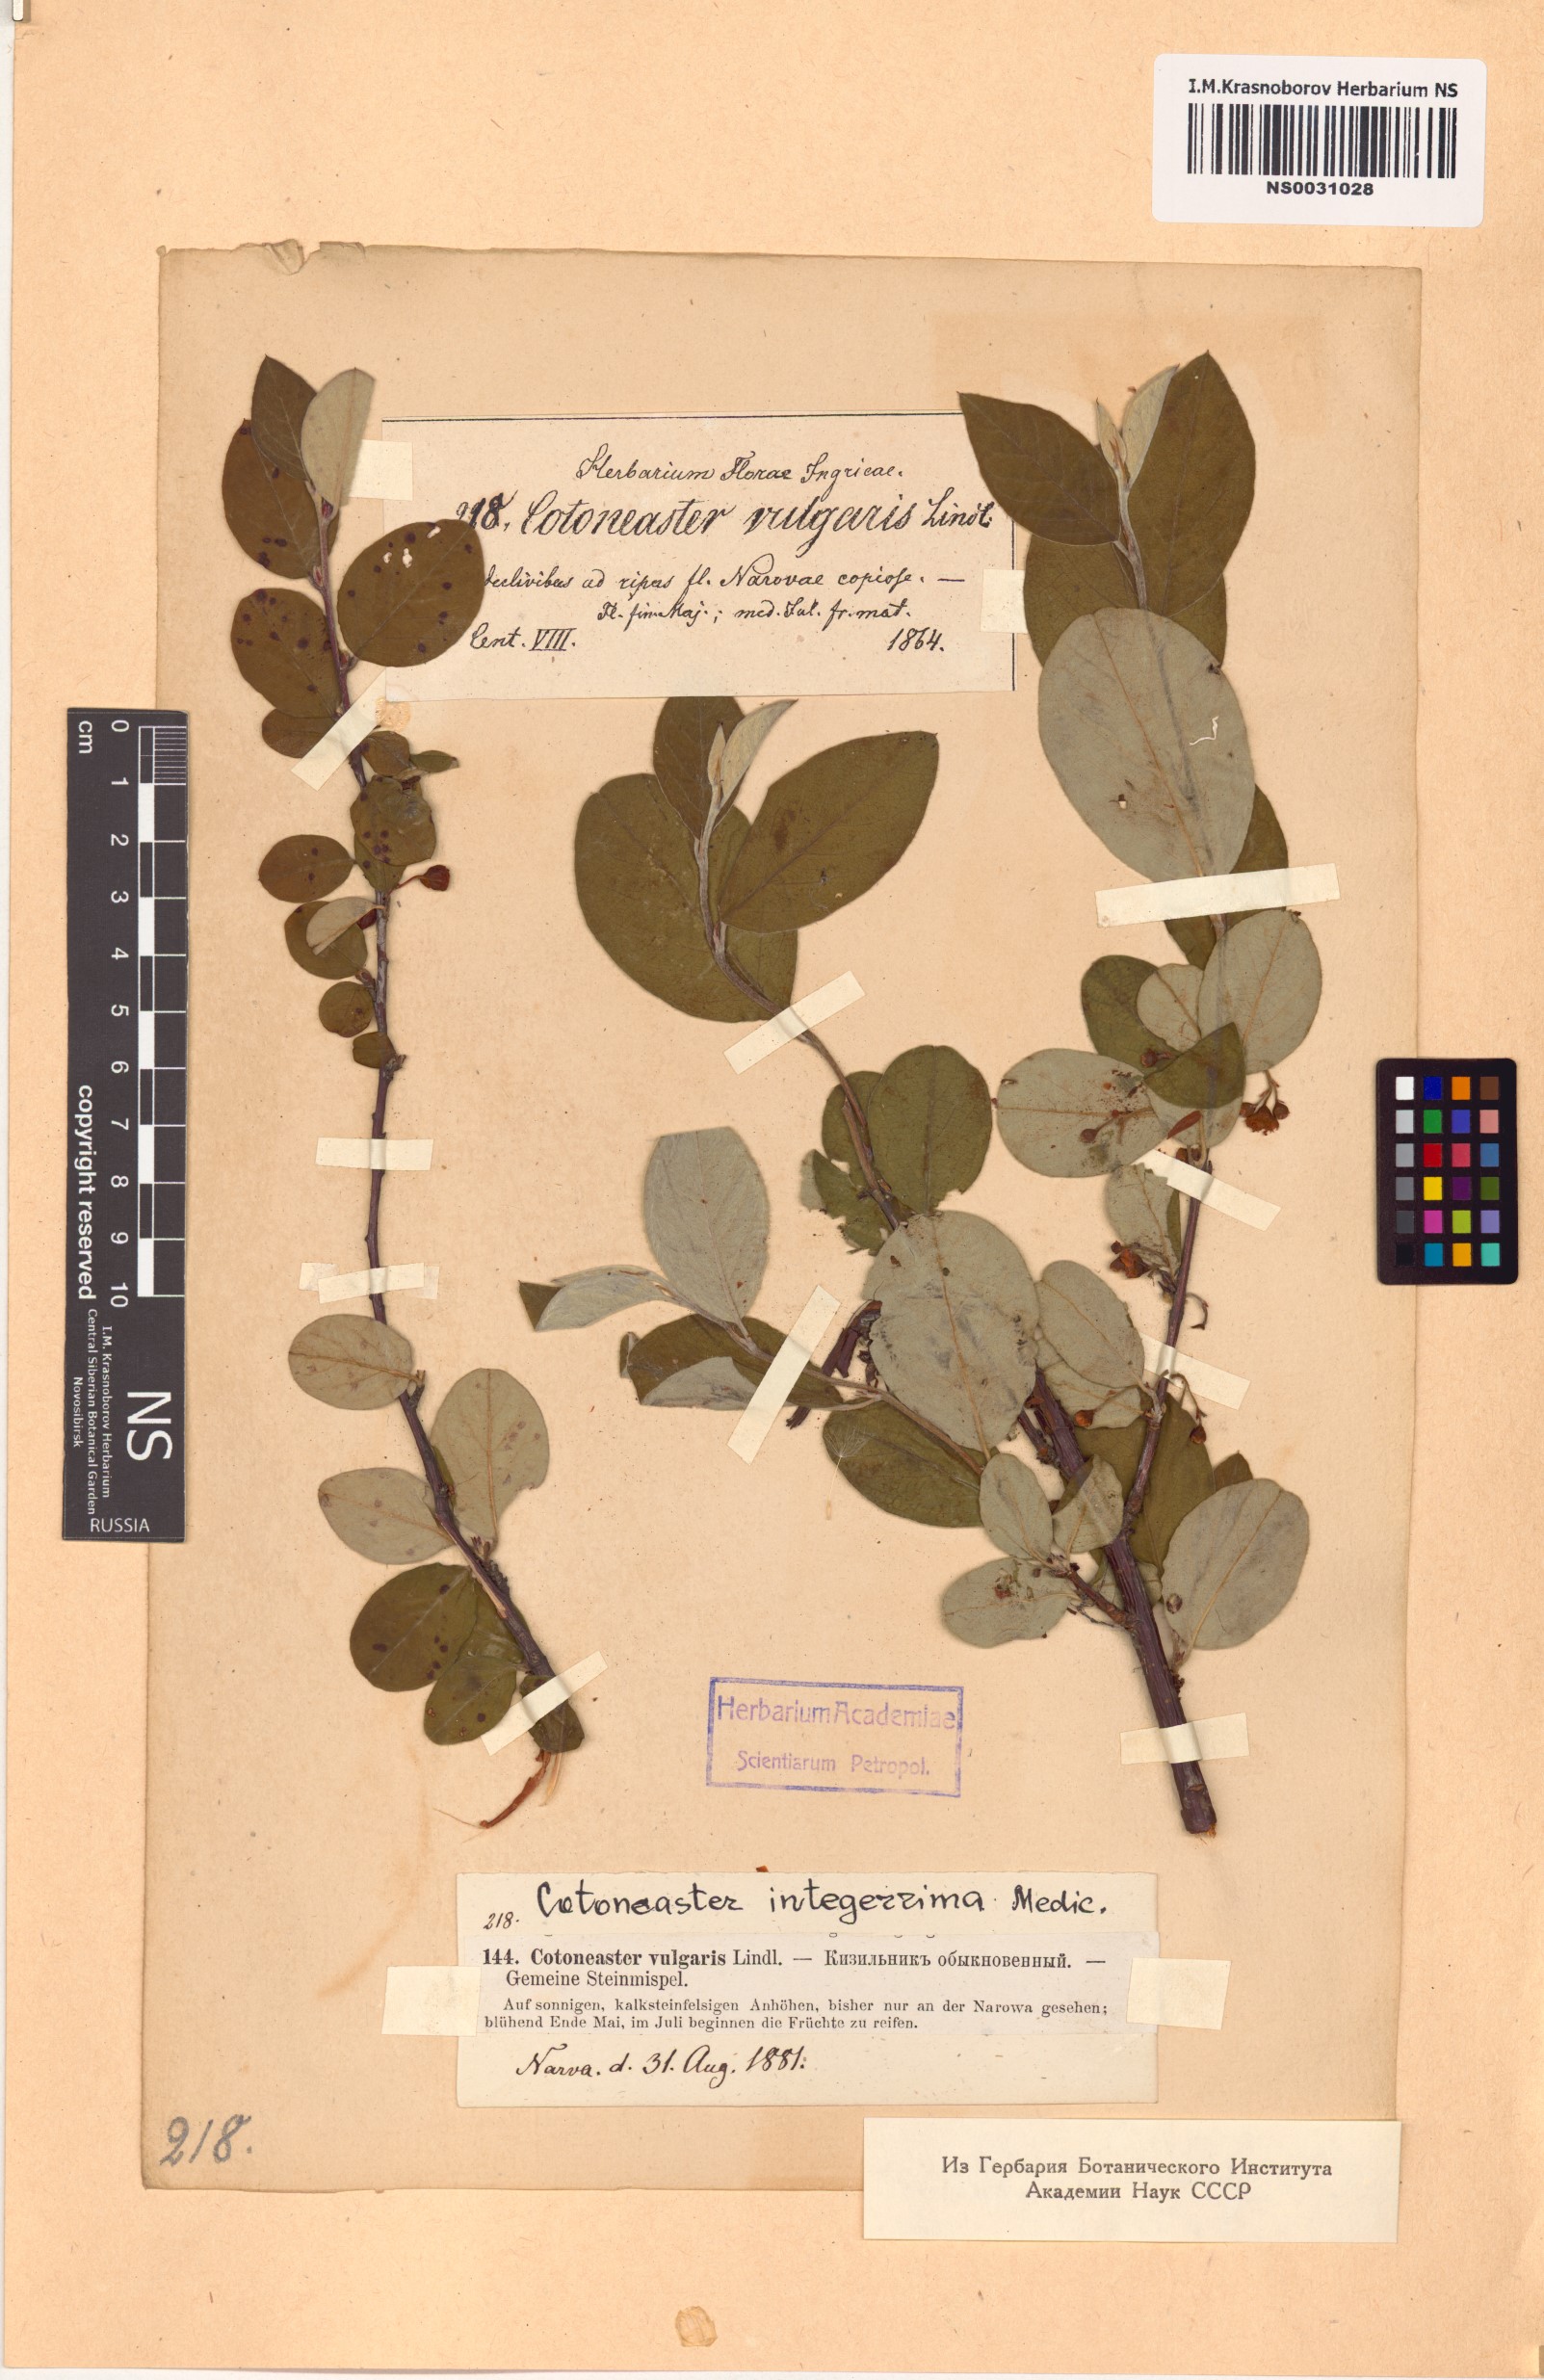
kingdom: Plantae
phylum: Tracheophyta
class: Magnoliopsida
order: Rosales
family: Rosaceae
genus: Cotoneaster
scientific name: Cotoneaster integerrimus
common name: Wild cotoneaster
